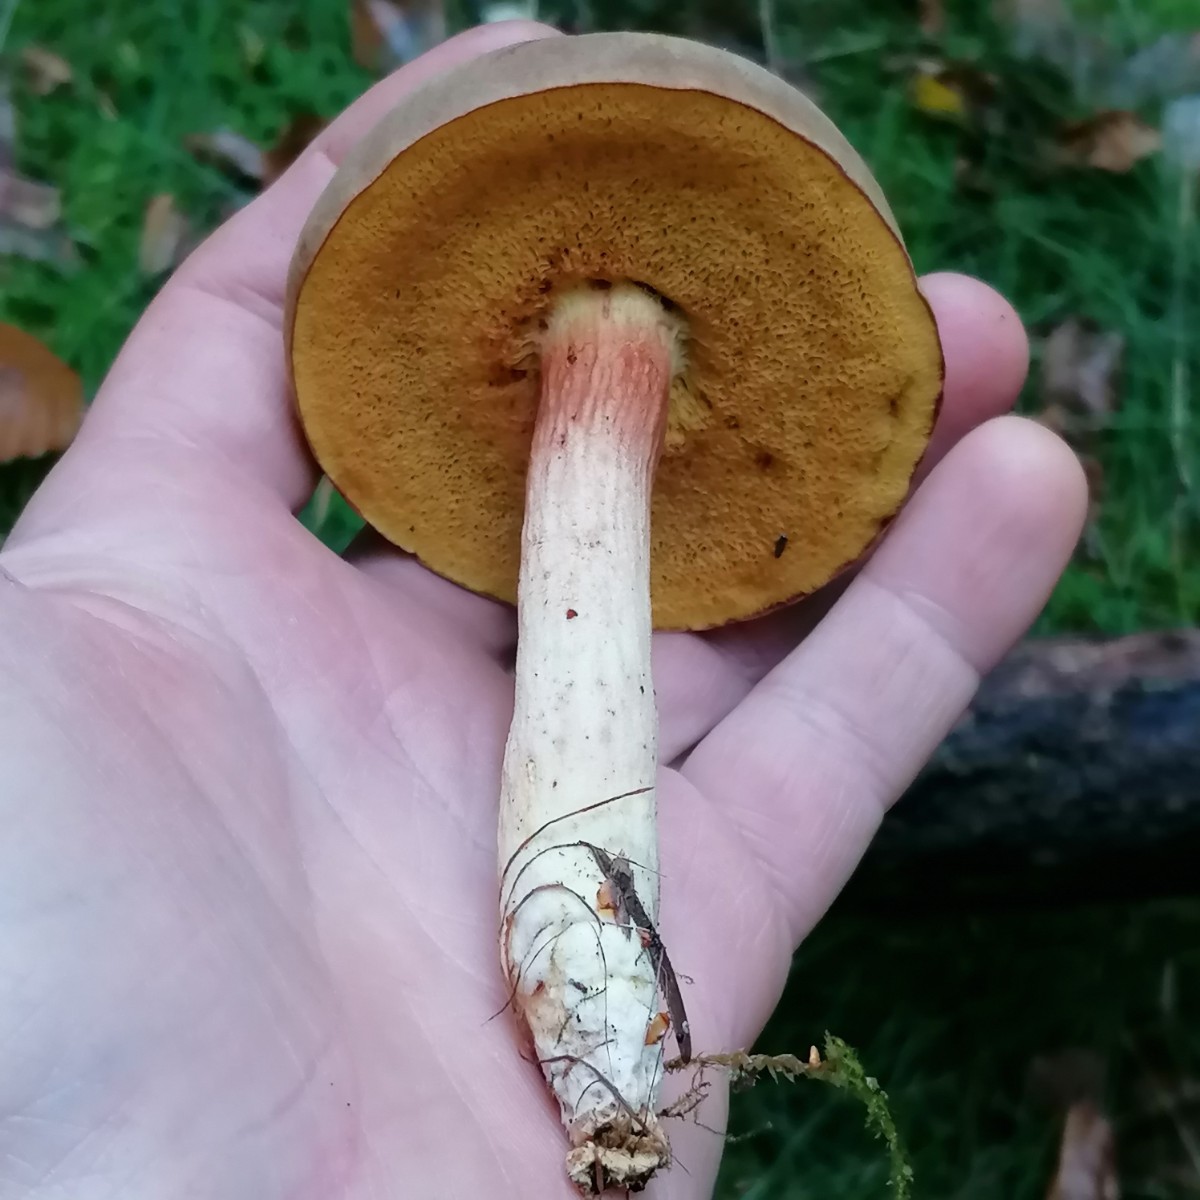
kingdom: Fungi
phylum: Basidiomycota
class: Agaricomycetes
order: Boletales
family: Boletaceae
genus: Xerocomus
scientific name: Xerocomus
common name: filtrørhat
